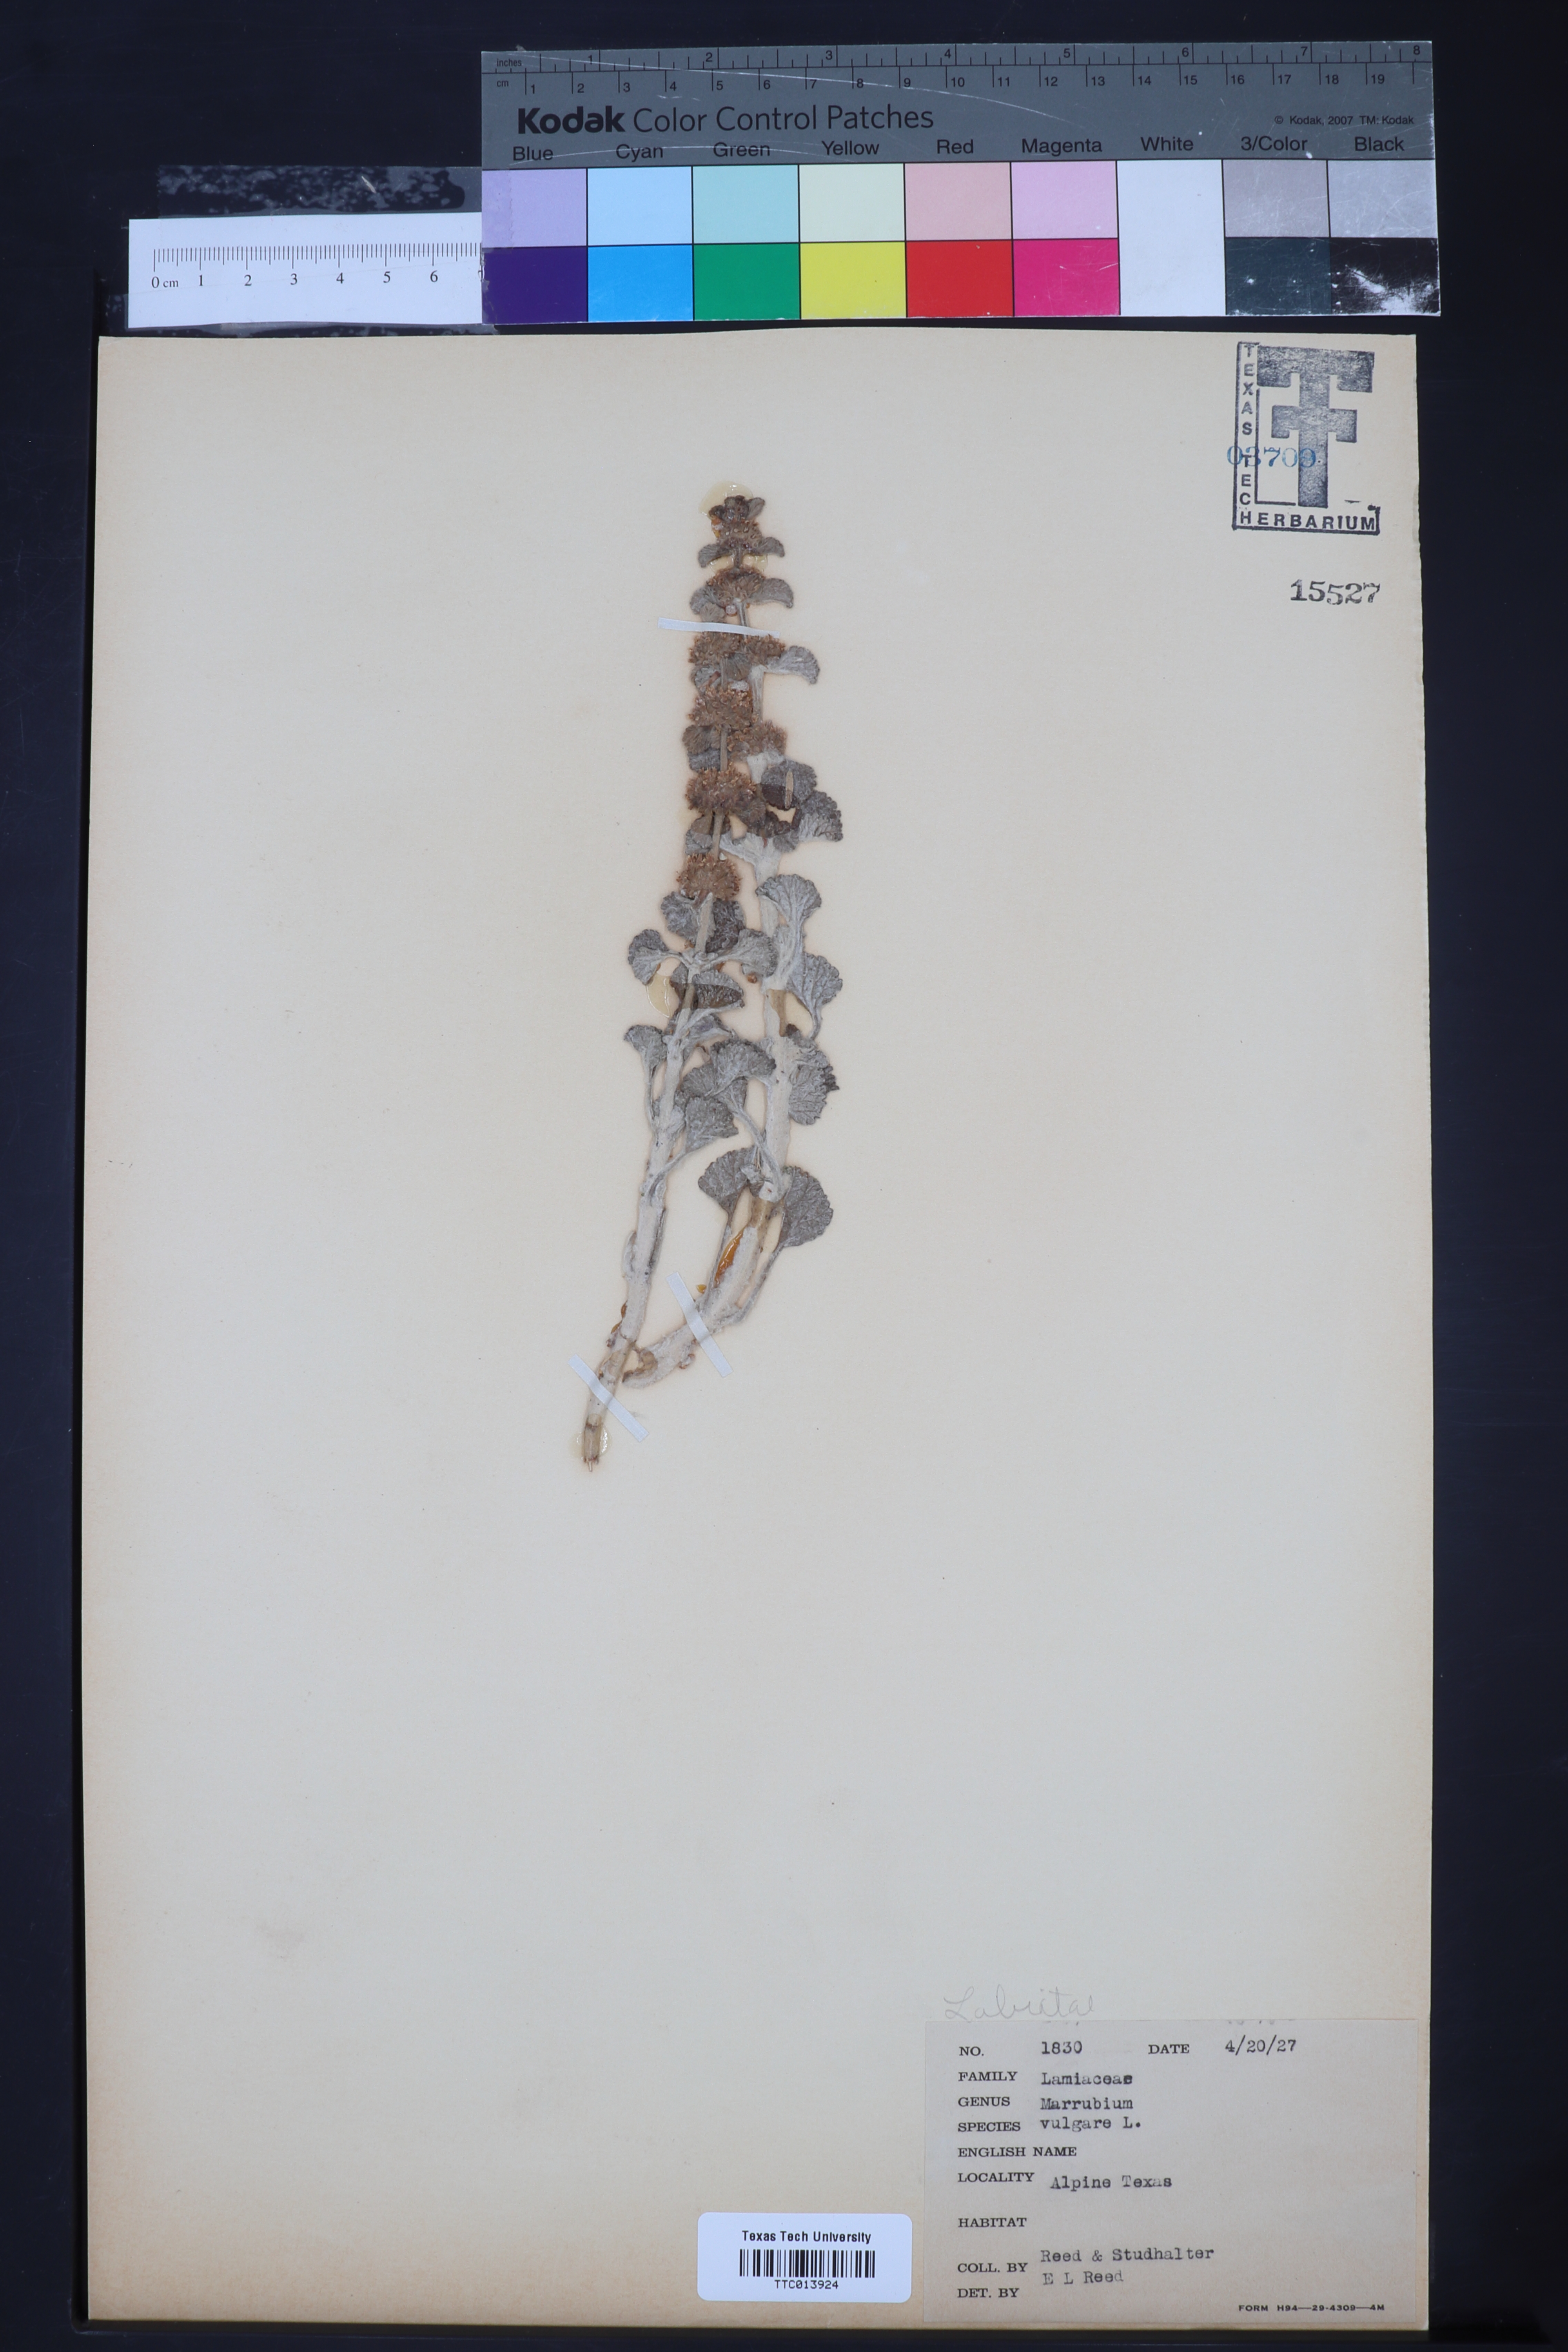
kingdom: Plantae
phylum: Tracheophyta
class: Magnoliopsida
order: Lamiales
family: Lamiaceae
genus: Marrubium
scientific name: Marrubium vulgare
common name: Horehound
